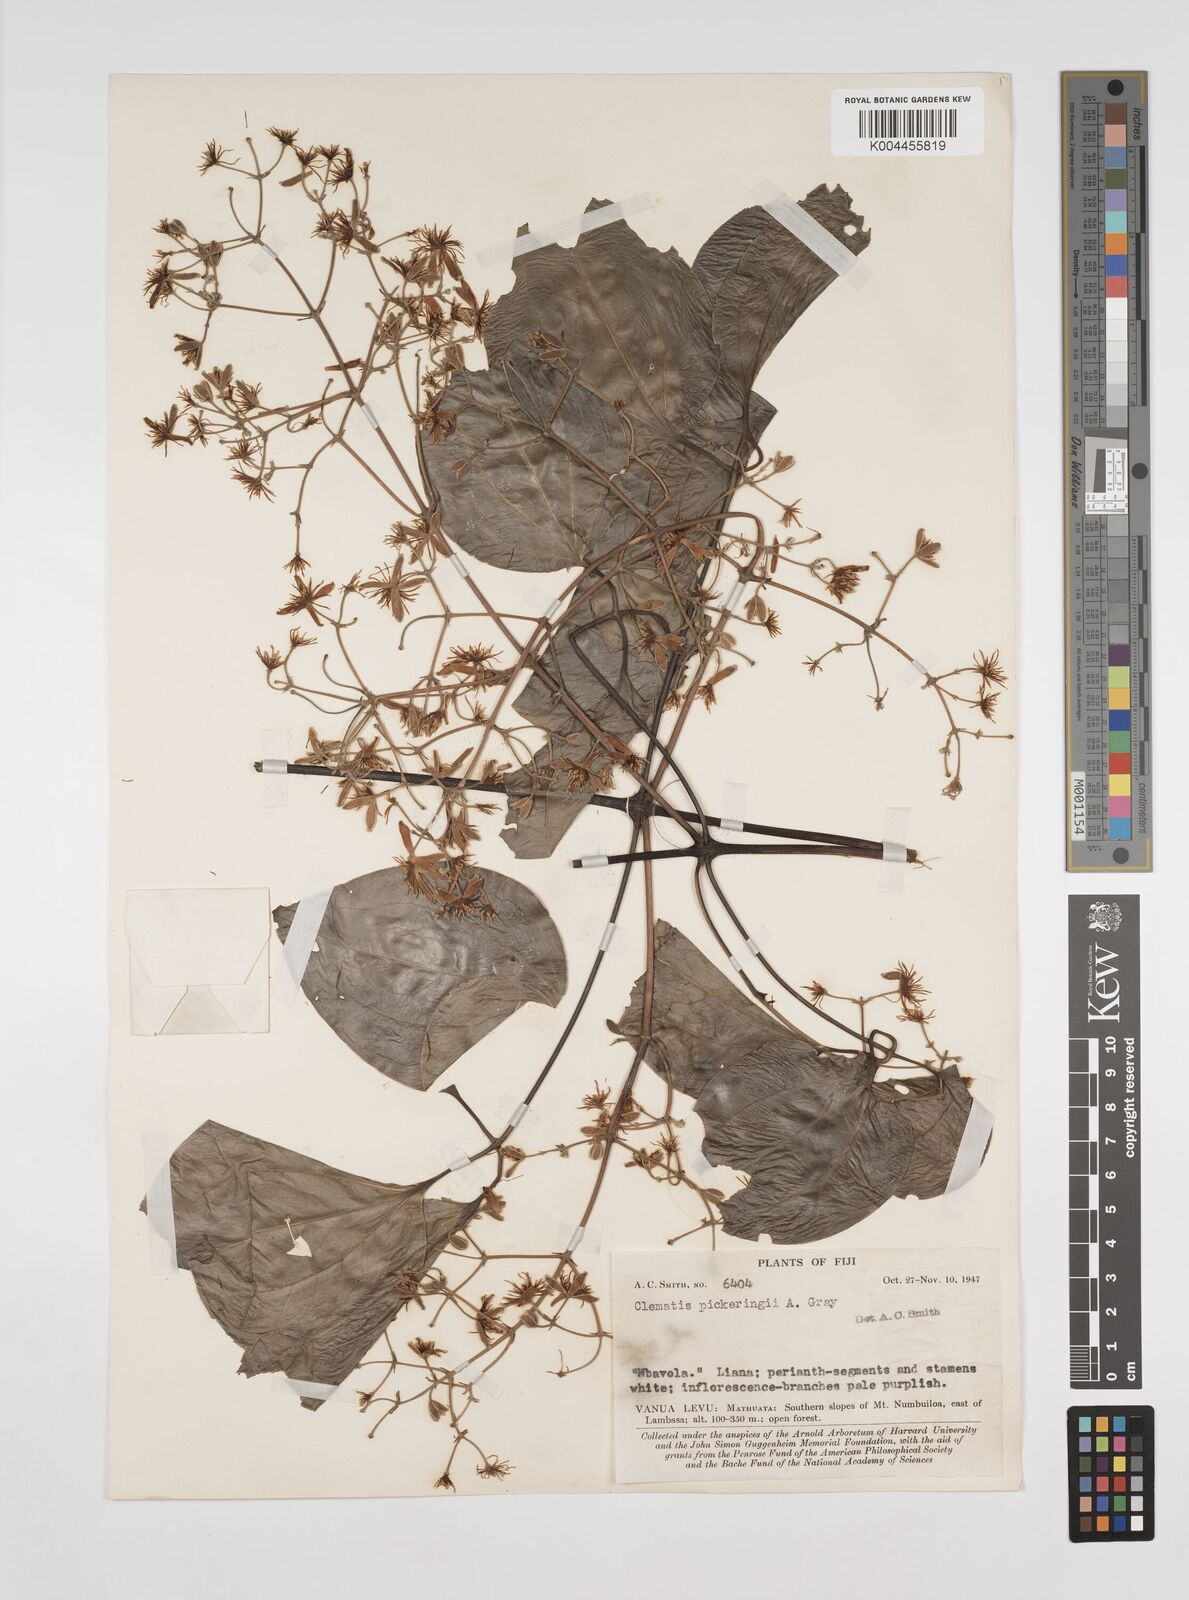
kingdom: Plantae
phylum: Tracheophyta
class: Magnoliopsida
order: Ranunculales
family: Ranunculaceae
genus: Clematis
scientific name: Clematis pickeringii
